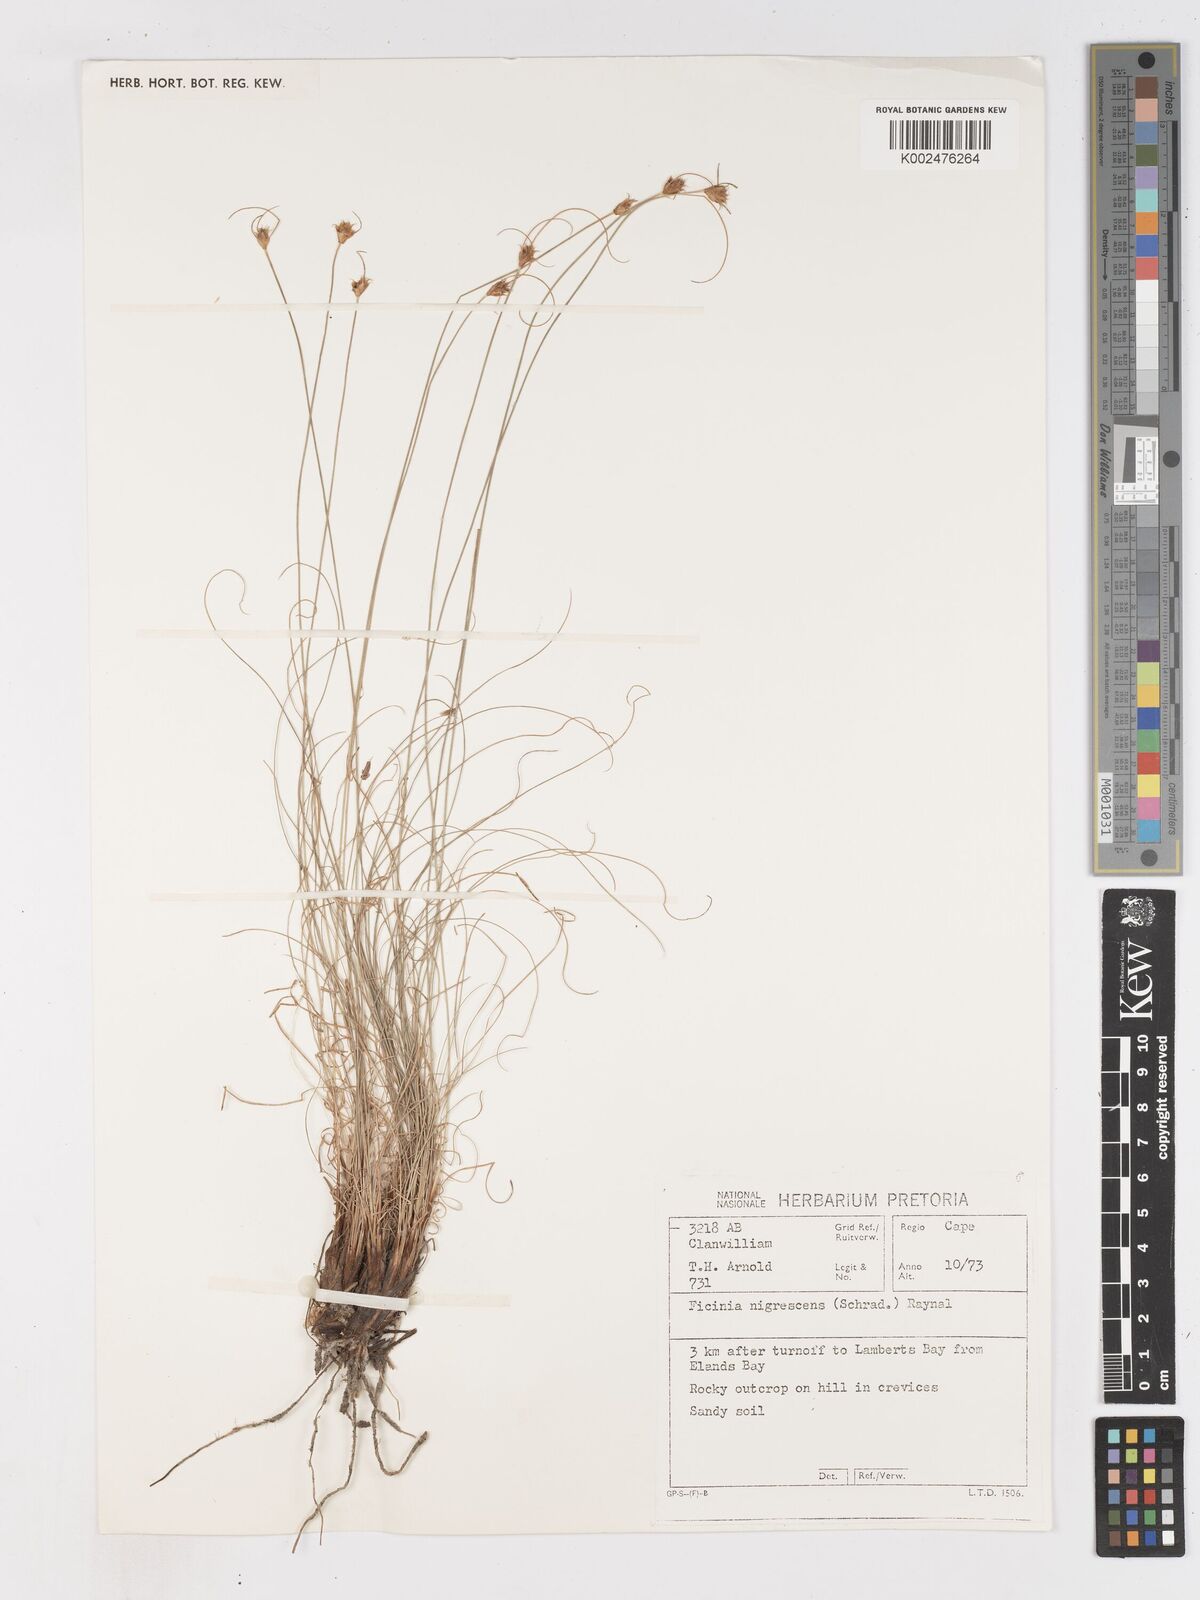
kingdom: Plantae
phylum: Tracheophyta
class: Liliopsida
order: Poales
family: Cyperaceae
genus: Ficinia
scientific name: Ficinia nigrescens
